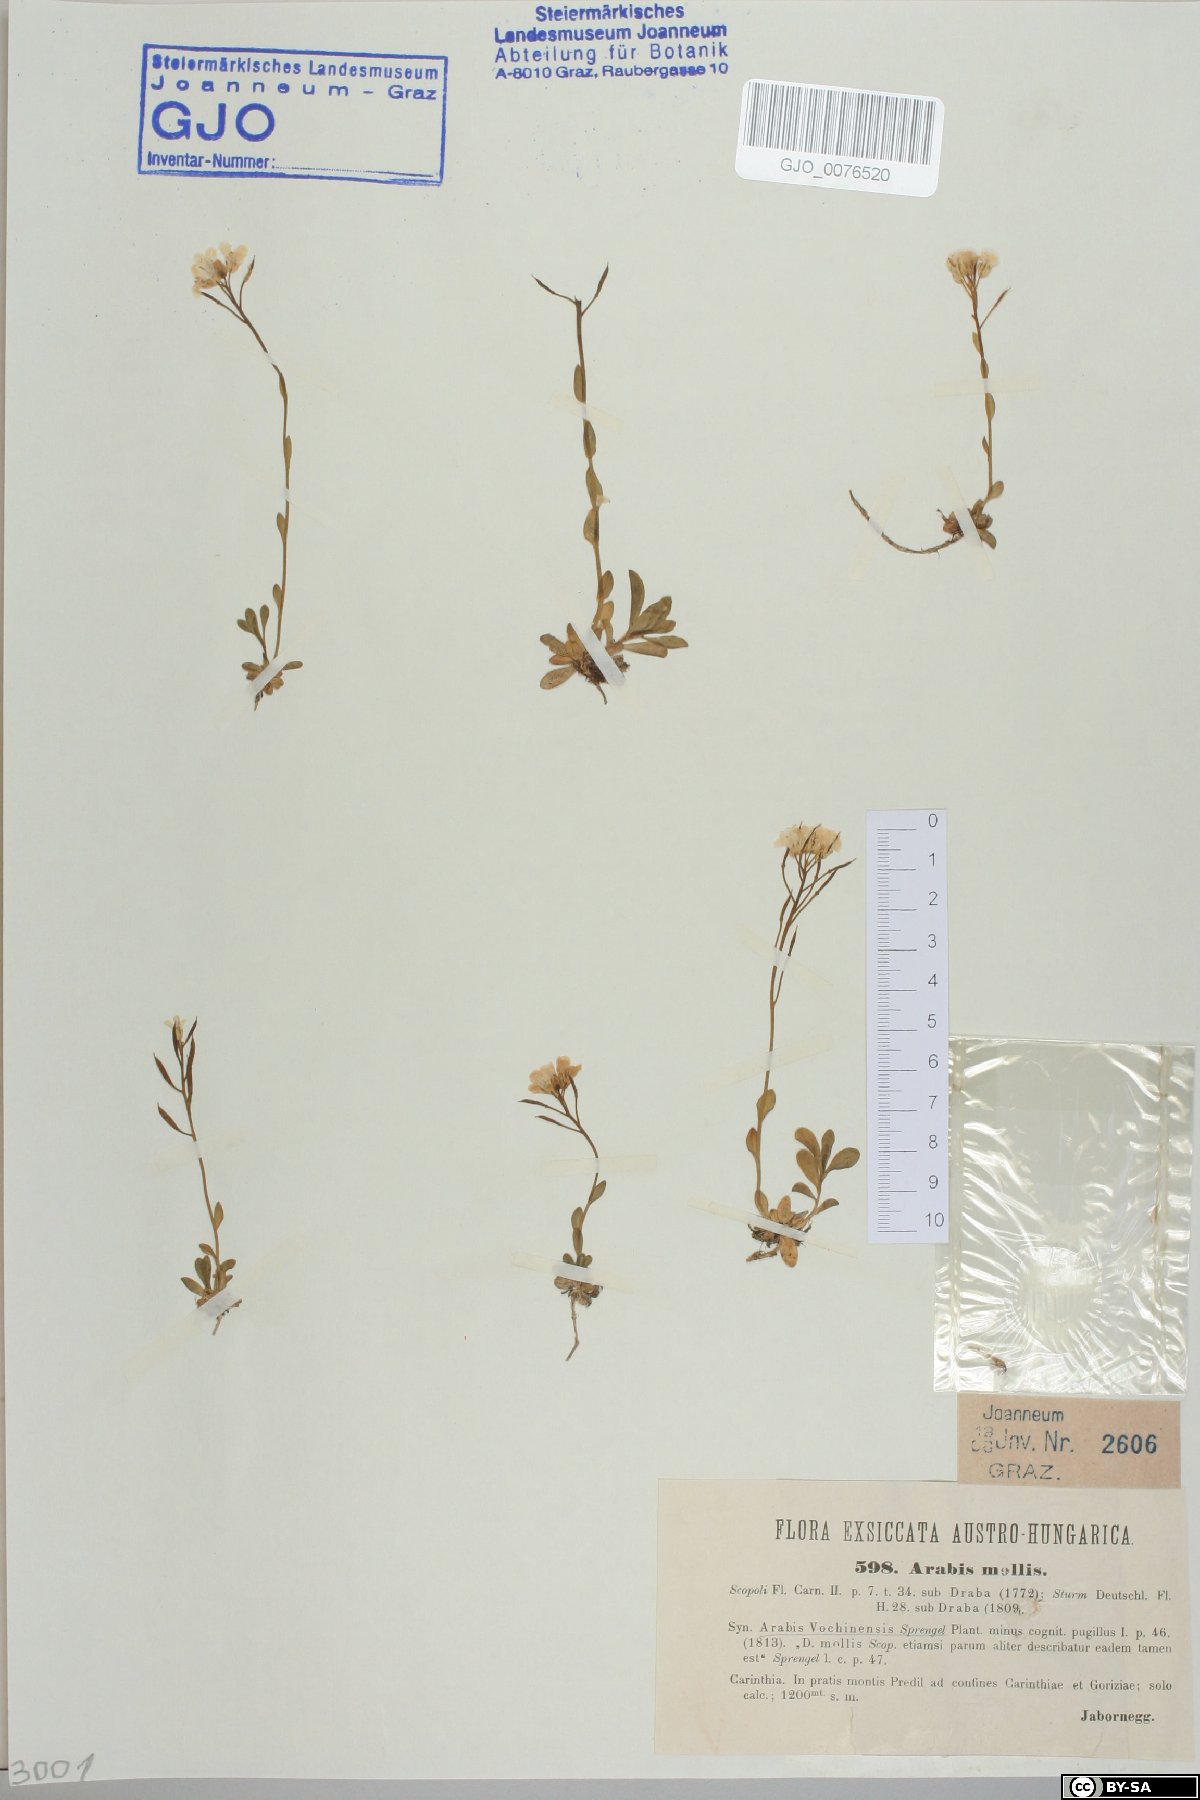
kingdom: Plantae
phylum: Tracheophyta
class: Magnoliopsida
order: Brassicales
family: Brassicaceae
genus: Arabis
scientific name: Arabis christiani
